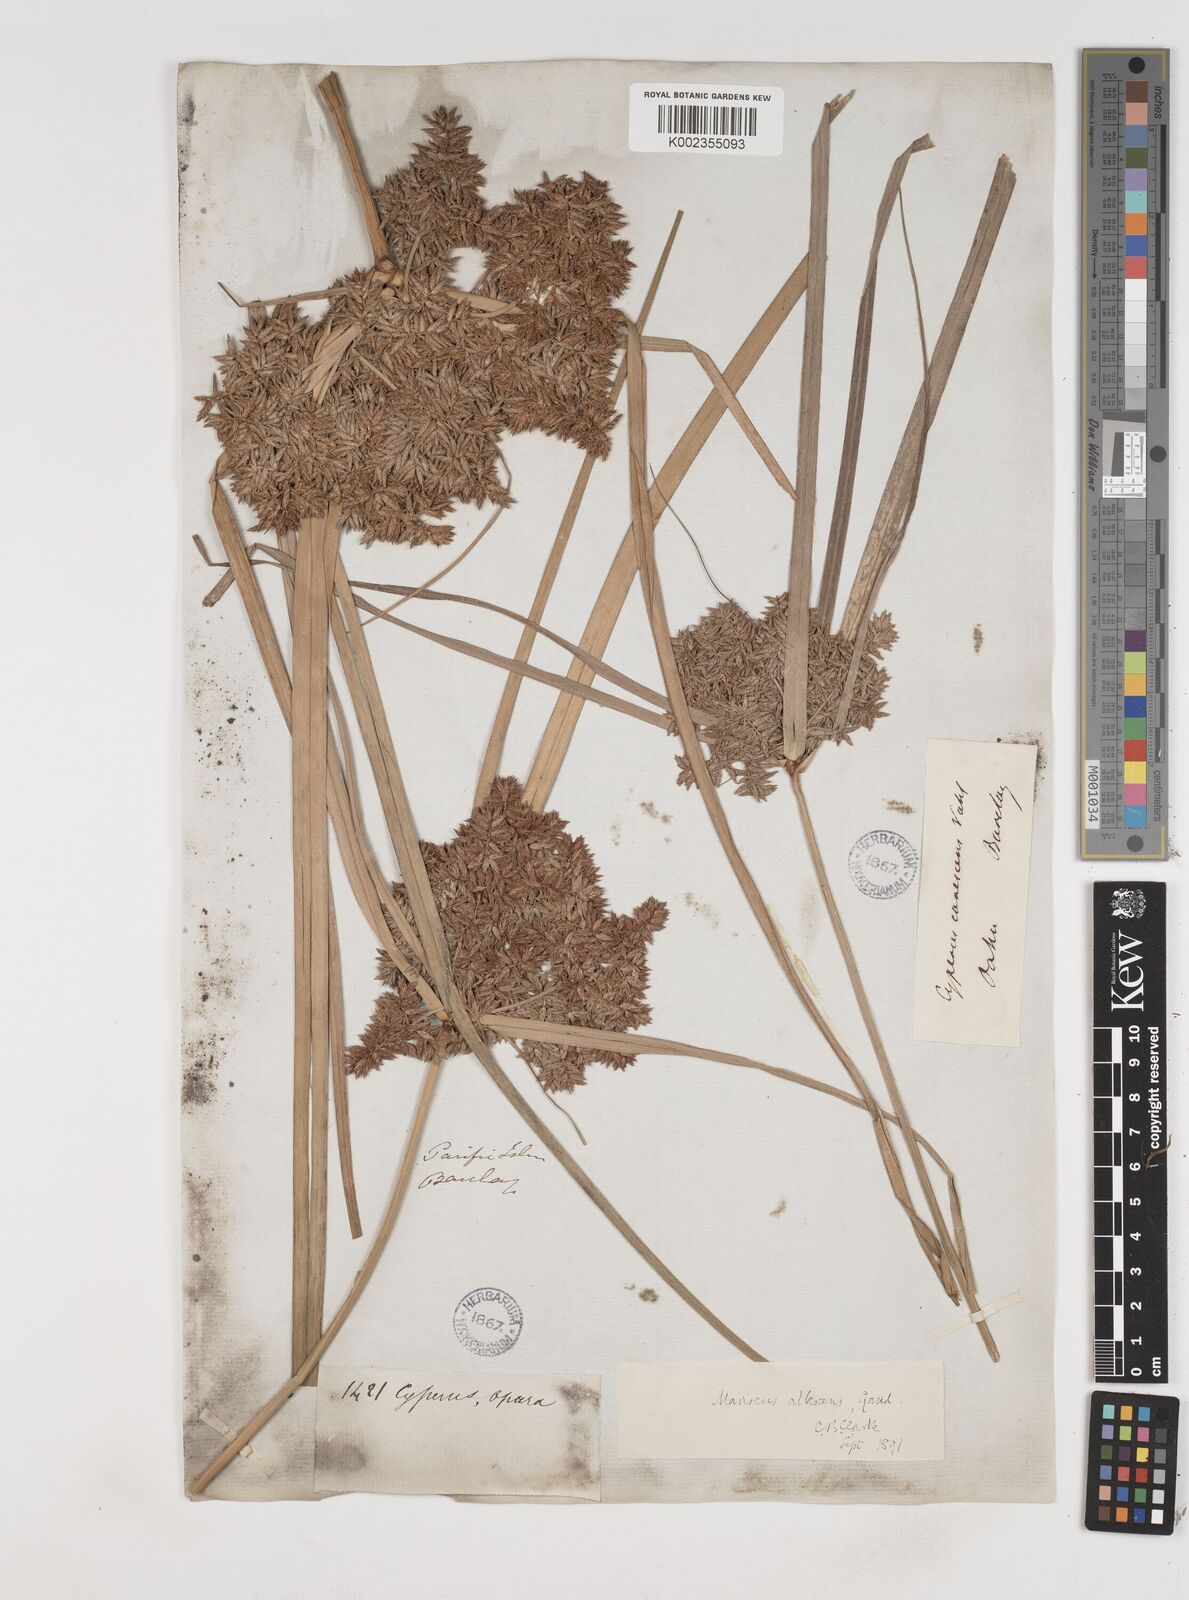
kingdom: Plantae
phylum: Tracheophyta
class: Liliopsida
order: Poales
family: Cyperaceae
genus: Cyperus
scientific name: Cyperus javanicus
